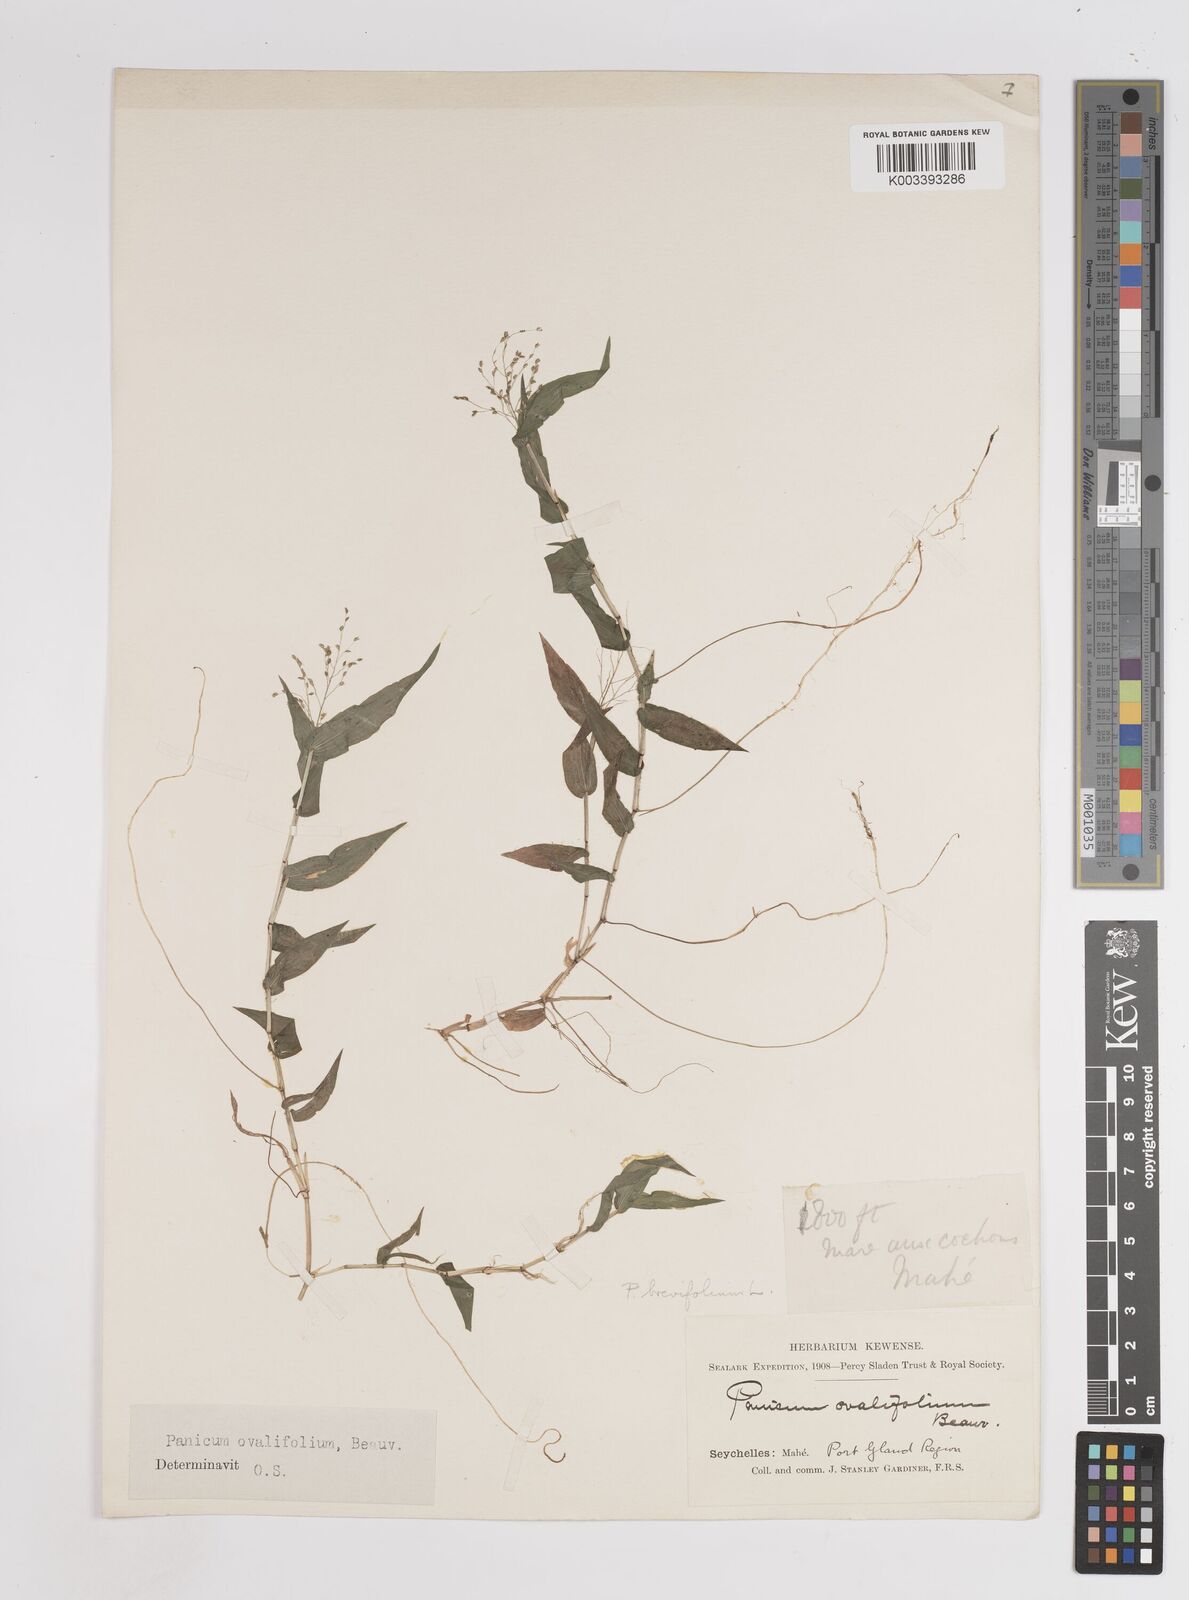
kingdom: Plantae
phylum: Tracheophyta
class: Liliopsida
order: Poales
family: Poaceae
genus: Panicum
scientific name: Panicum brevifolium
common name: Shortleaf panic grass
